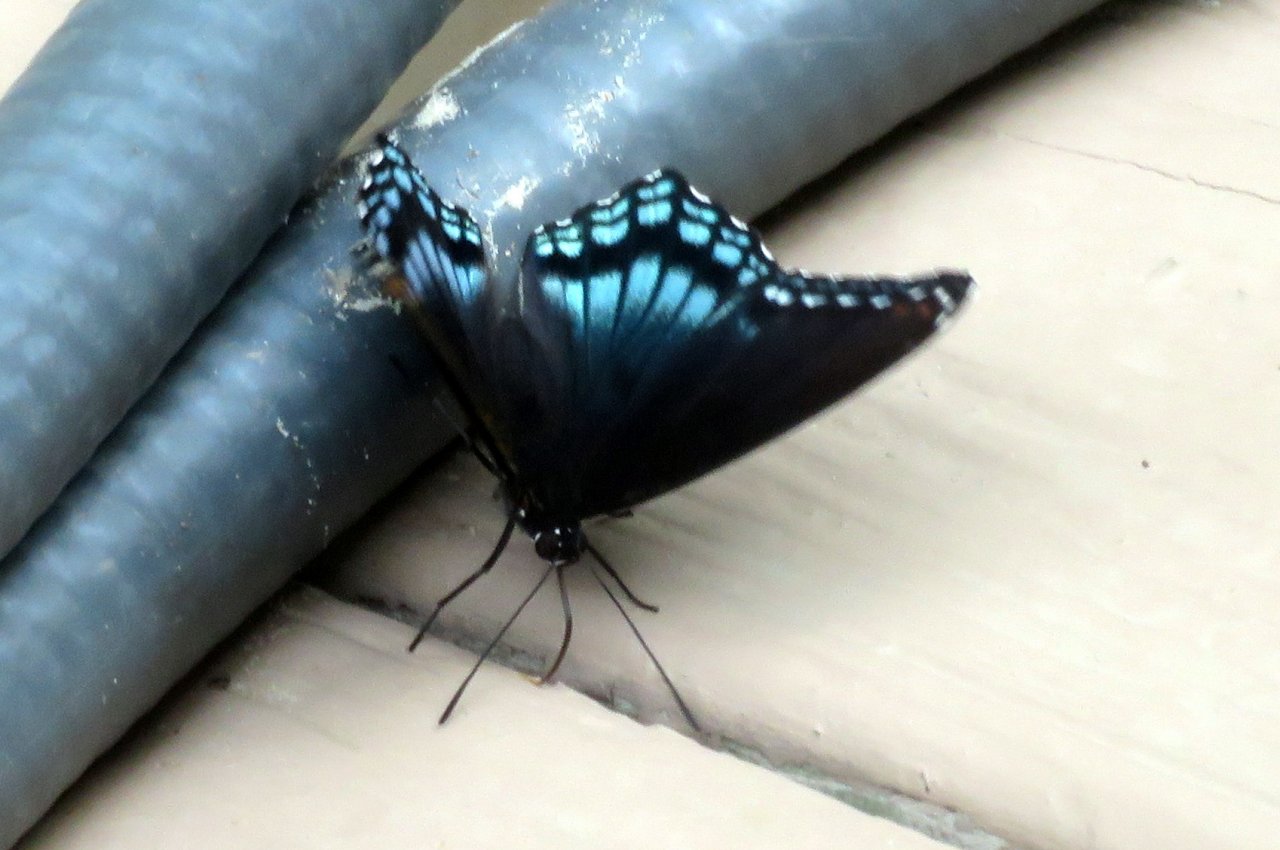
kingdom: Animalia
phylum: Arthropoda
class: Insecta
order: Lepidoptera
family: Nymphalidae
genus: Limenitis
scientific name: Limenitis astyanax
